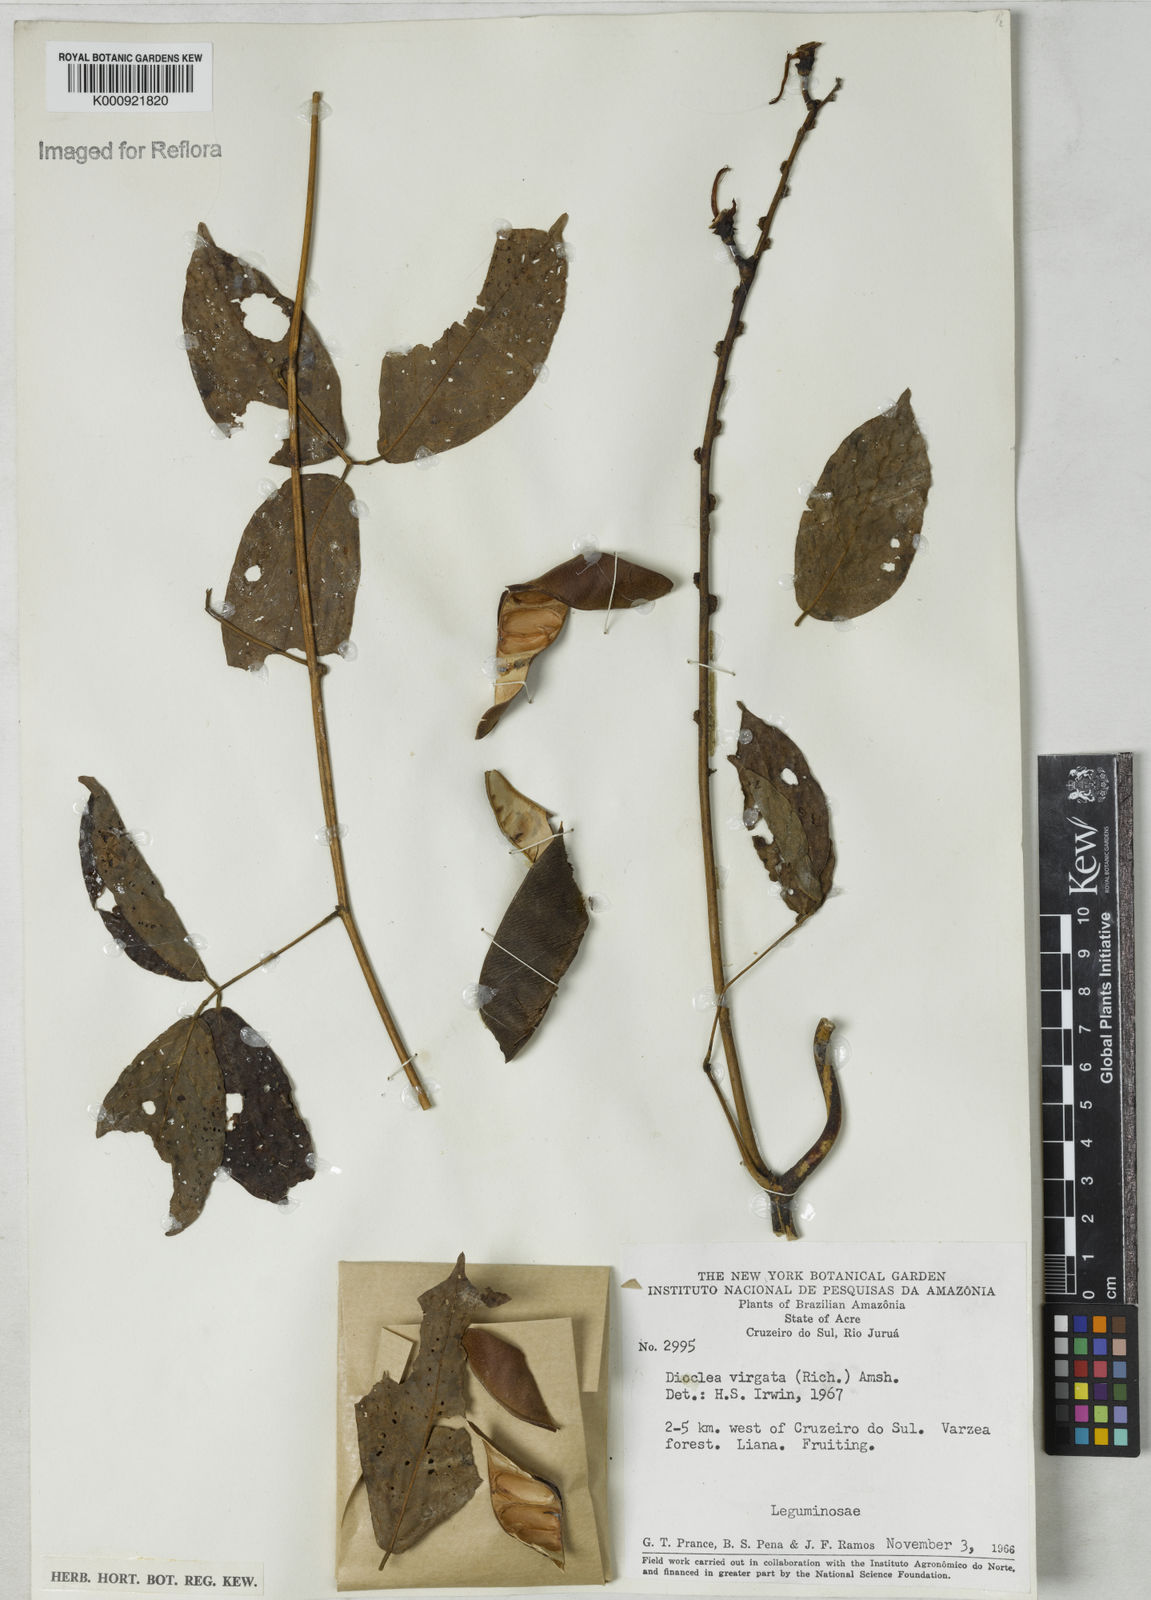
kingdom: Plantae
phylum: Tracheophyta
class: Magnoliopsida
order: Fabales
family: Fabaceae
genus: Dioclea
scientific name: Dioclea virgata
